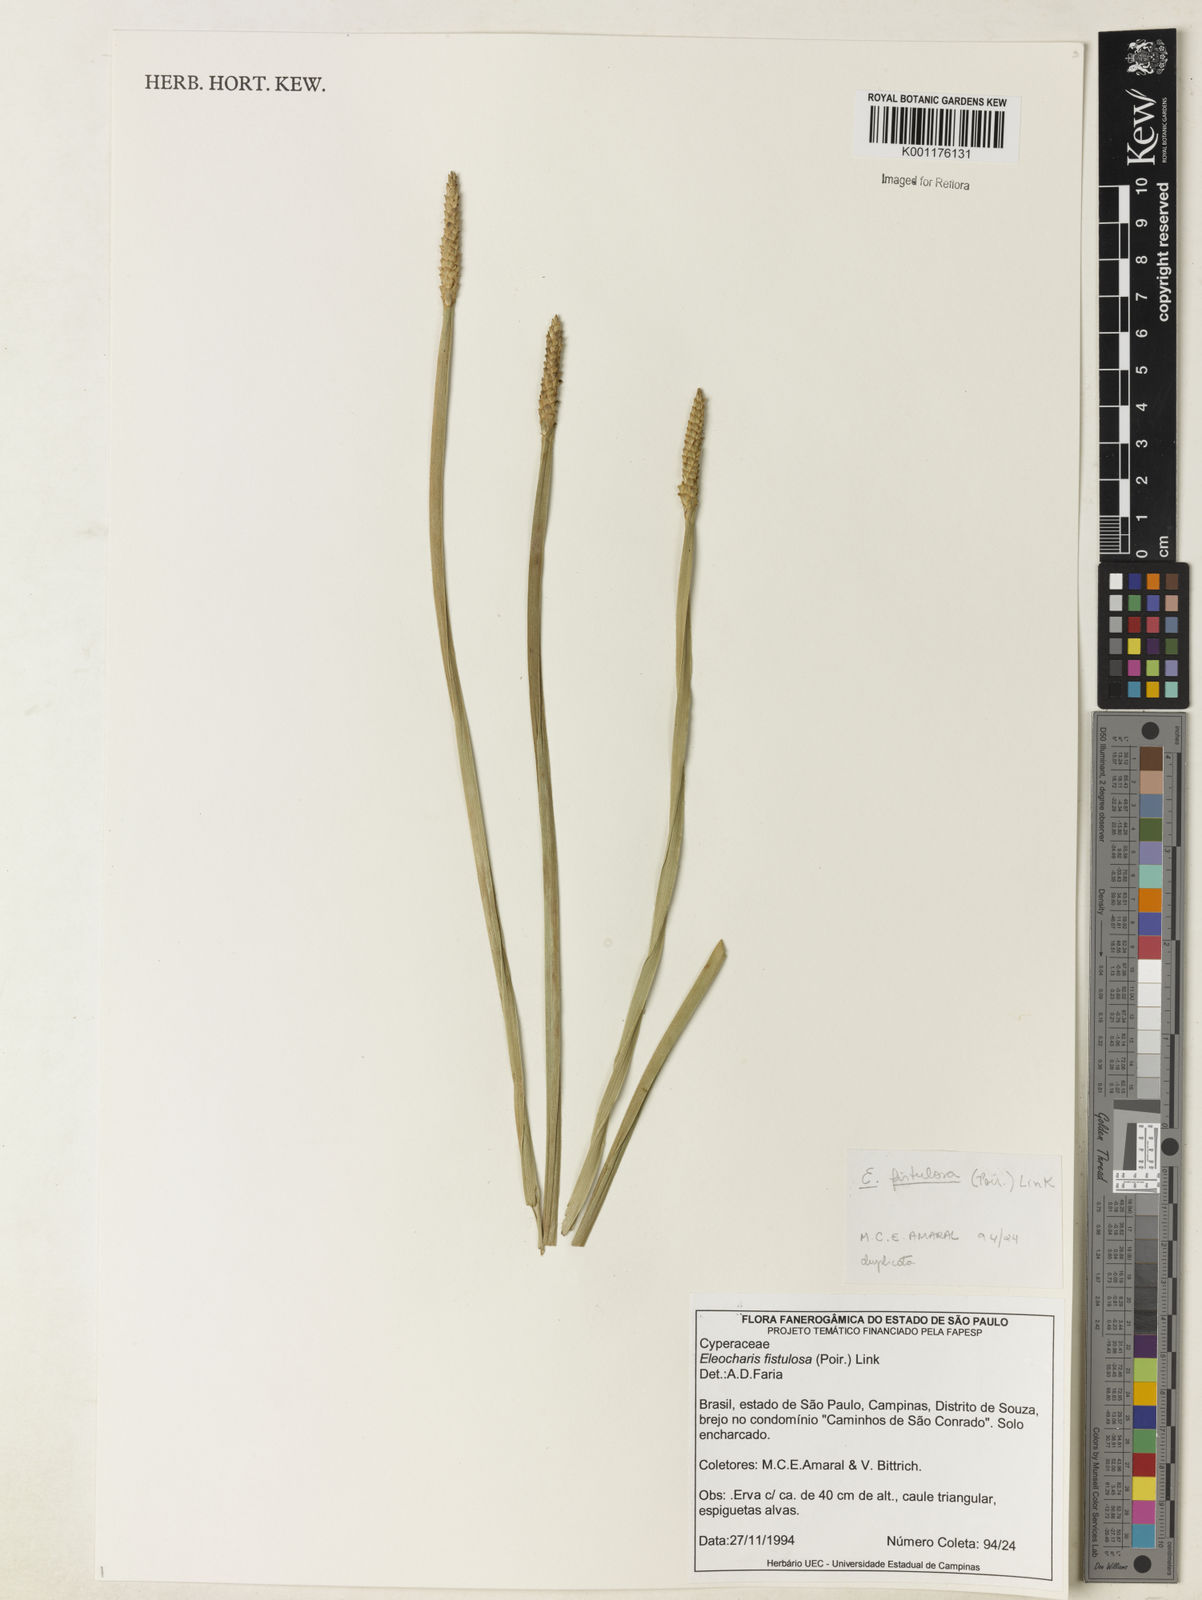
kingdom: Plantae
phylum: Tracheophyta
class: Liliopsida
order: Poales
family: Cyperaceae
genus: Eleocharis
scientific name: Eleocharis acutangula
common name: Acute spikerush
